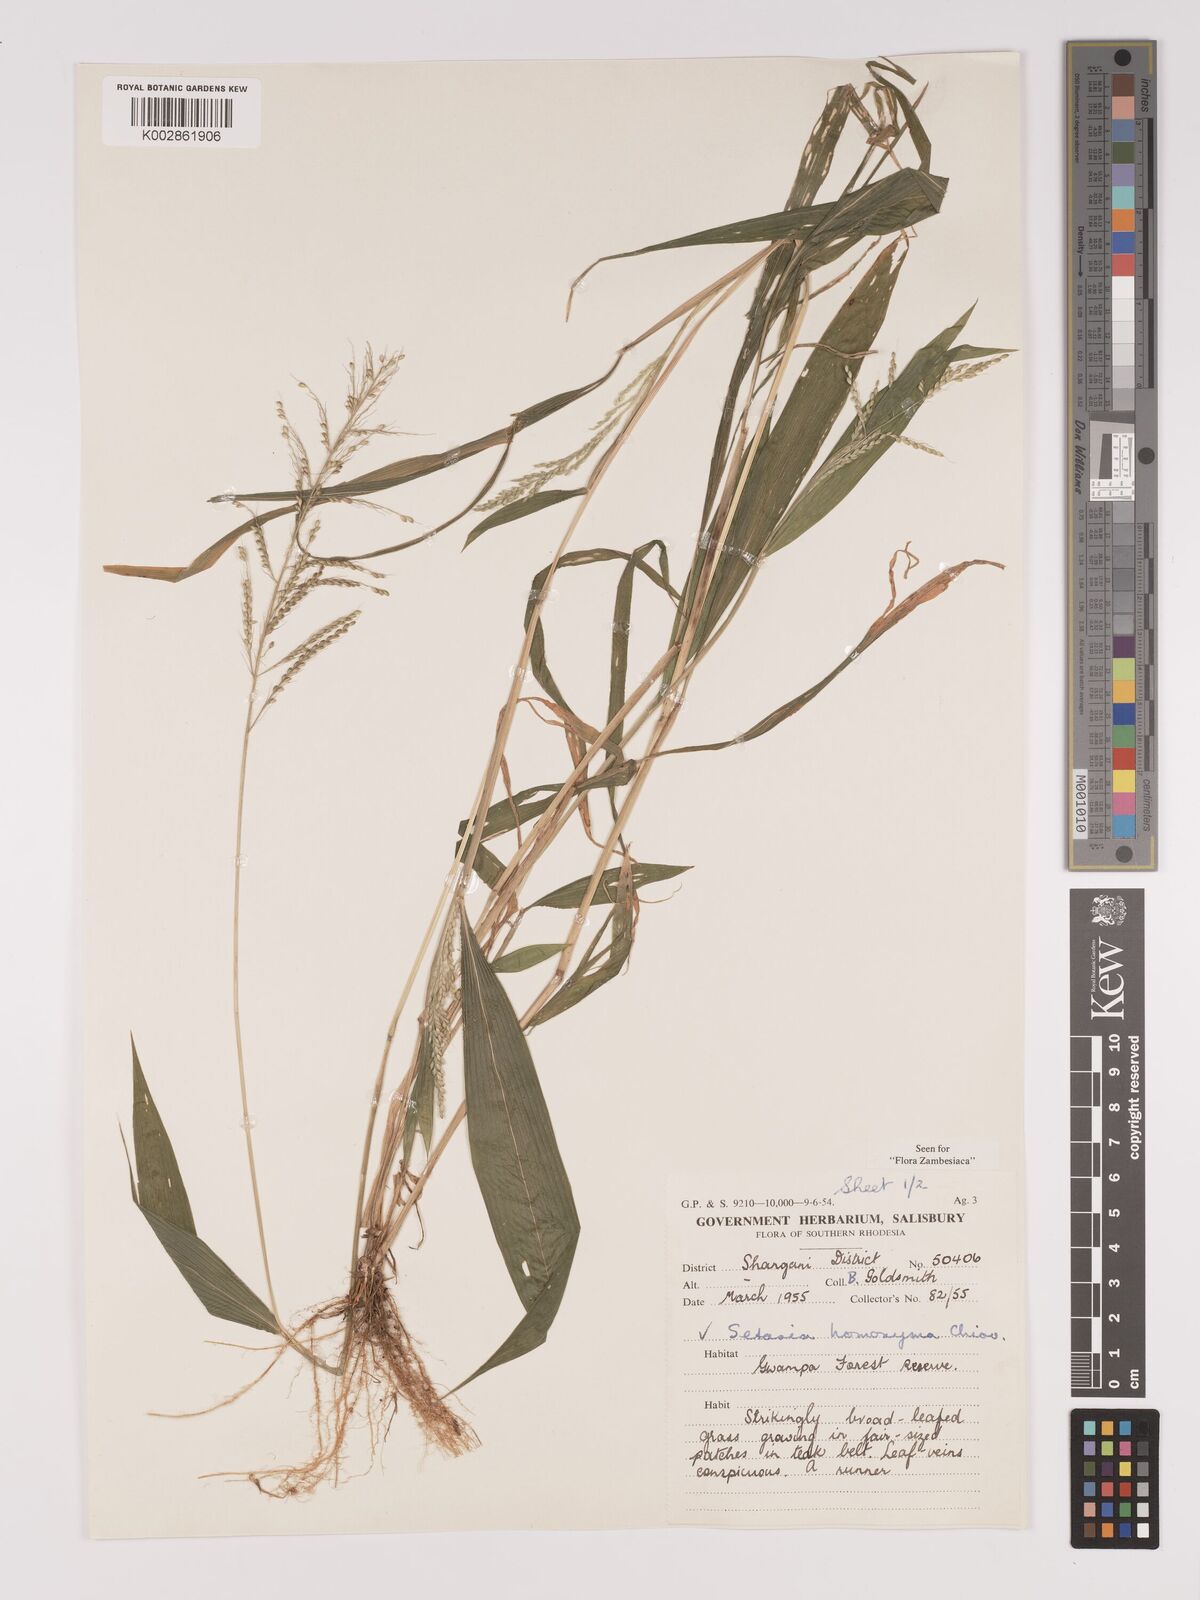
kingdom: Plantae
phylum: Tracheophyta
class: Liliopsida
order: Poales
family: Poaceae
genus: Setaria
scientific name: Setaria homonyma
